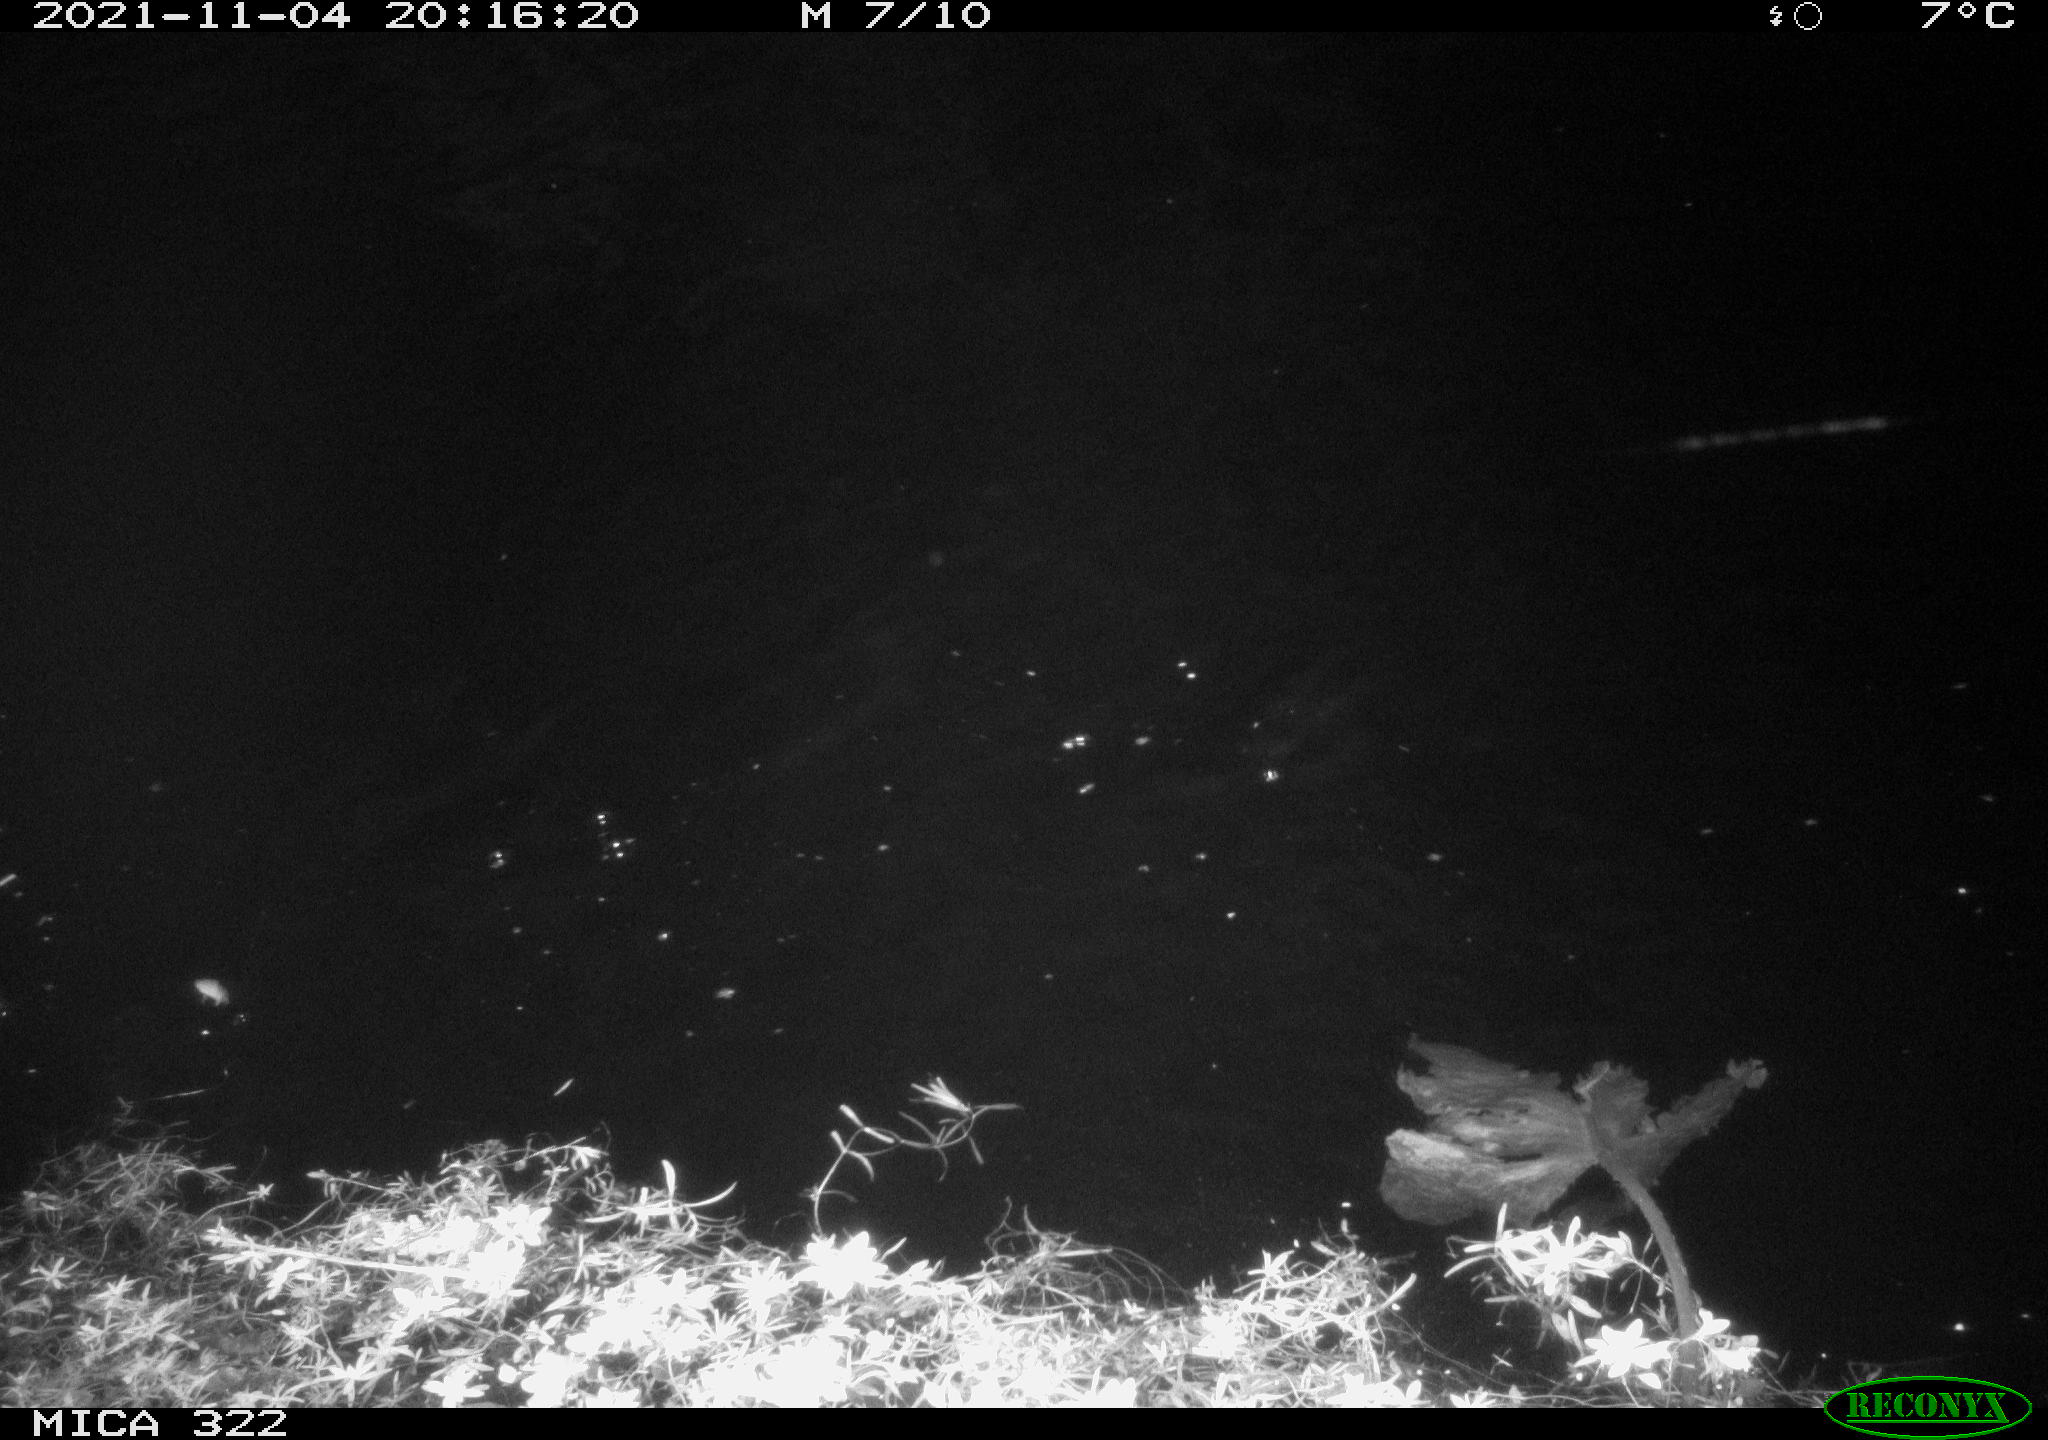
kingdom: Animalia
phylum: Chordata
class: Aves
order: Anseriformes
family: Anatidae
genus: Anas
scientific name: Anas platyrhynchos
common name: Mallard
